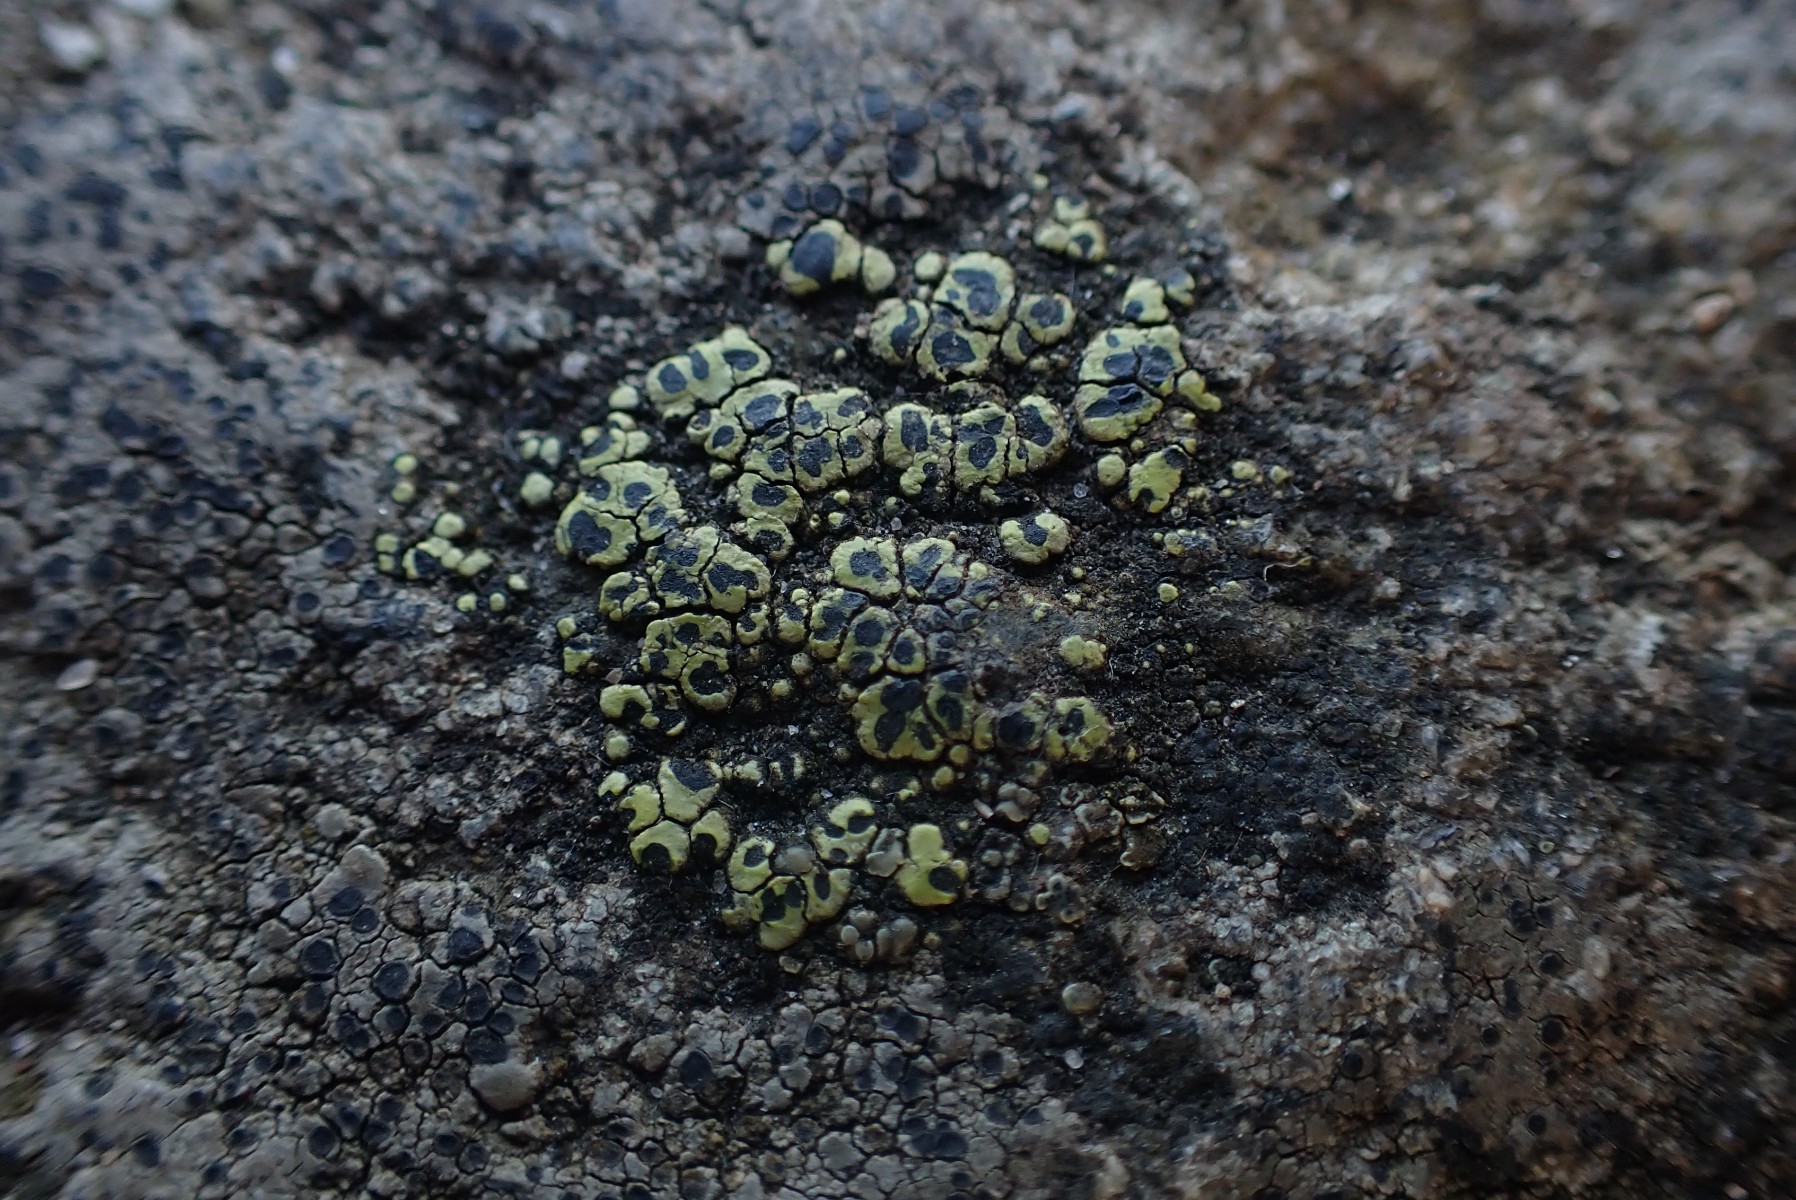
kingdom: Fungi
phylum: Ascomycota
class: Lecanoromycetes
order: Rhizocarpales
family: Rhizocarpaceae
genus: Rhizocarpon
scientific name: Rhizocarpon lecanorinum
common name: krave-landkortlav
